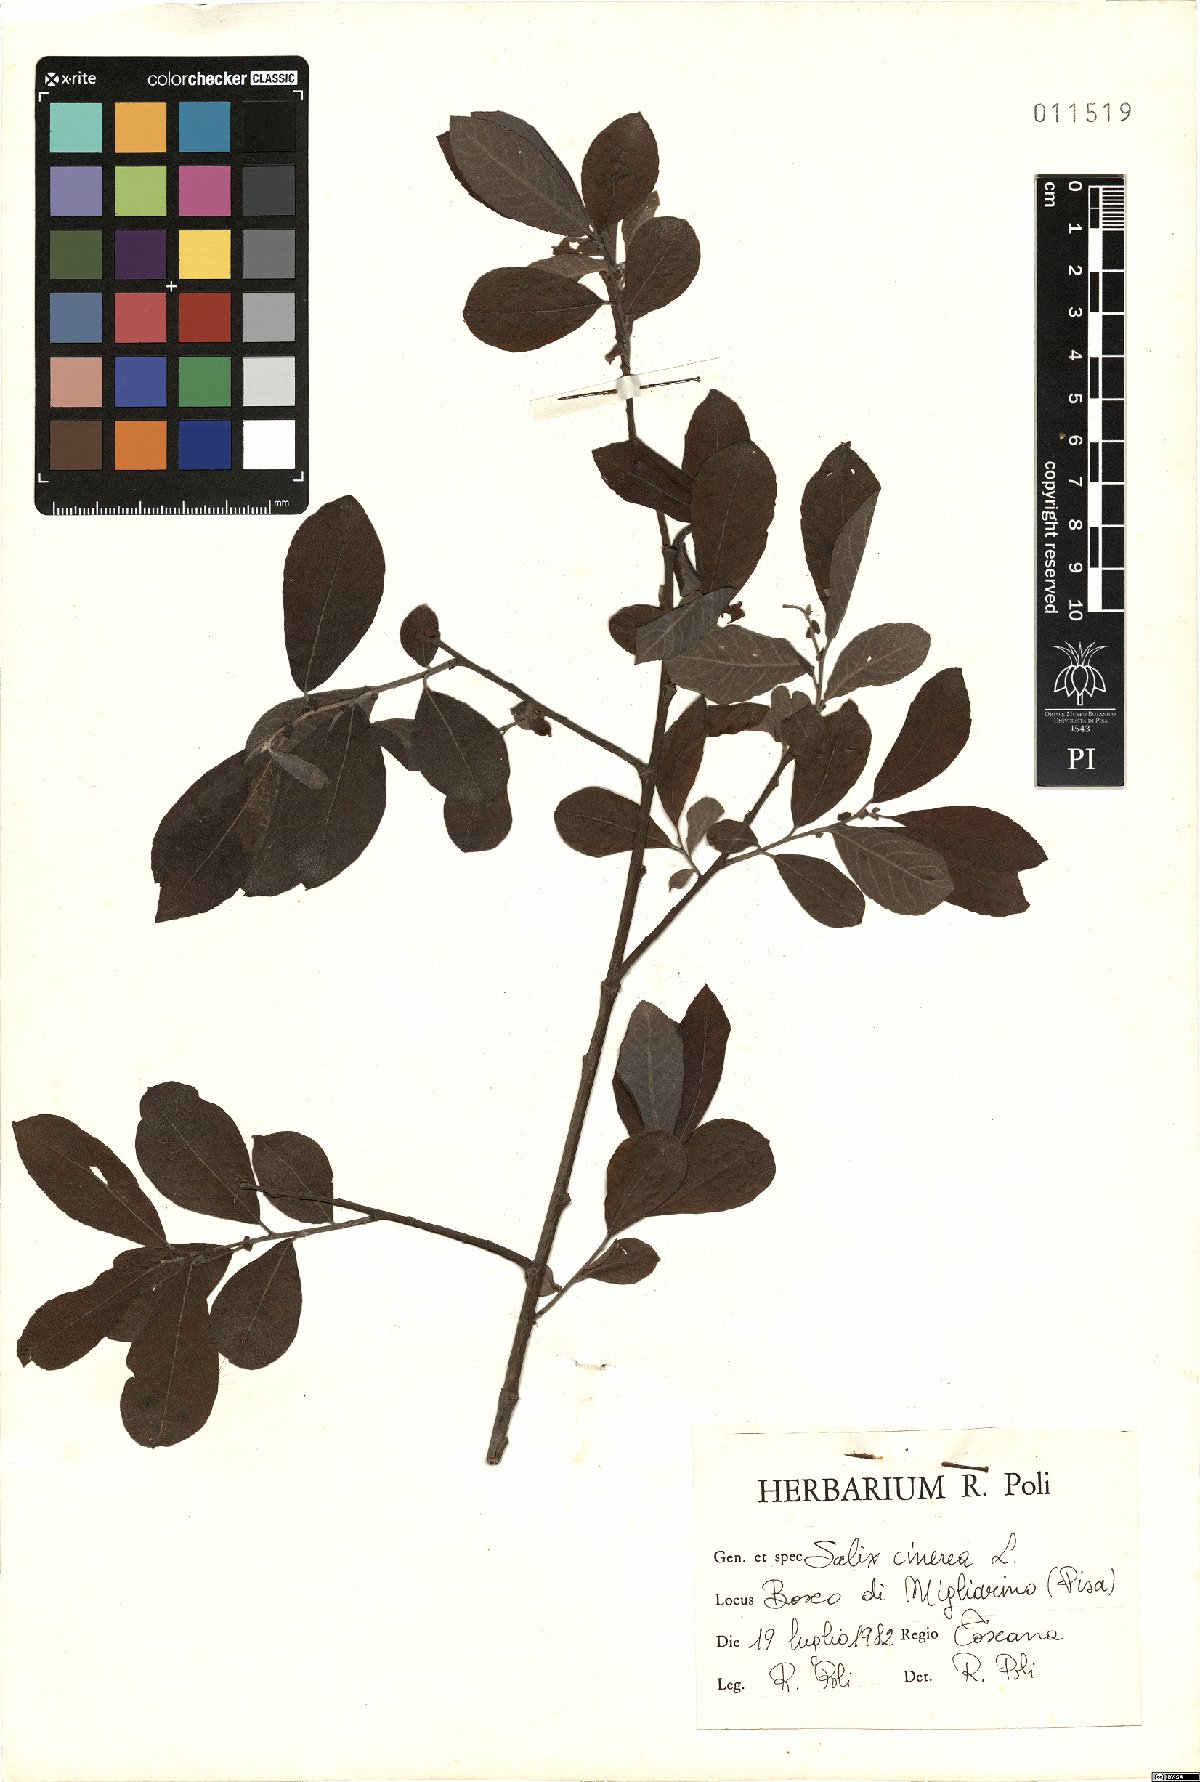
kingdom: Plantae
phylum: Tracheophyta
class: Magnoliopsida
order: Malpighiales
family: Salicaceae
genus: Salix
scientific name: Salix cinerea
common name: Common sallow
